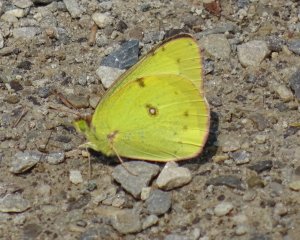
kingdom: Animalia
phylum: Arthropoda
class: Insecta
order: Lepidoptera
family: Pieridae
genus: Colias
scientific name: Colias philodice
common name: Clouded Sulphur
